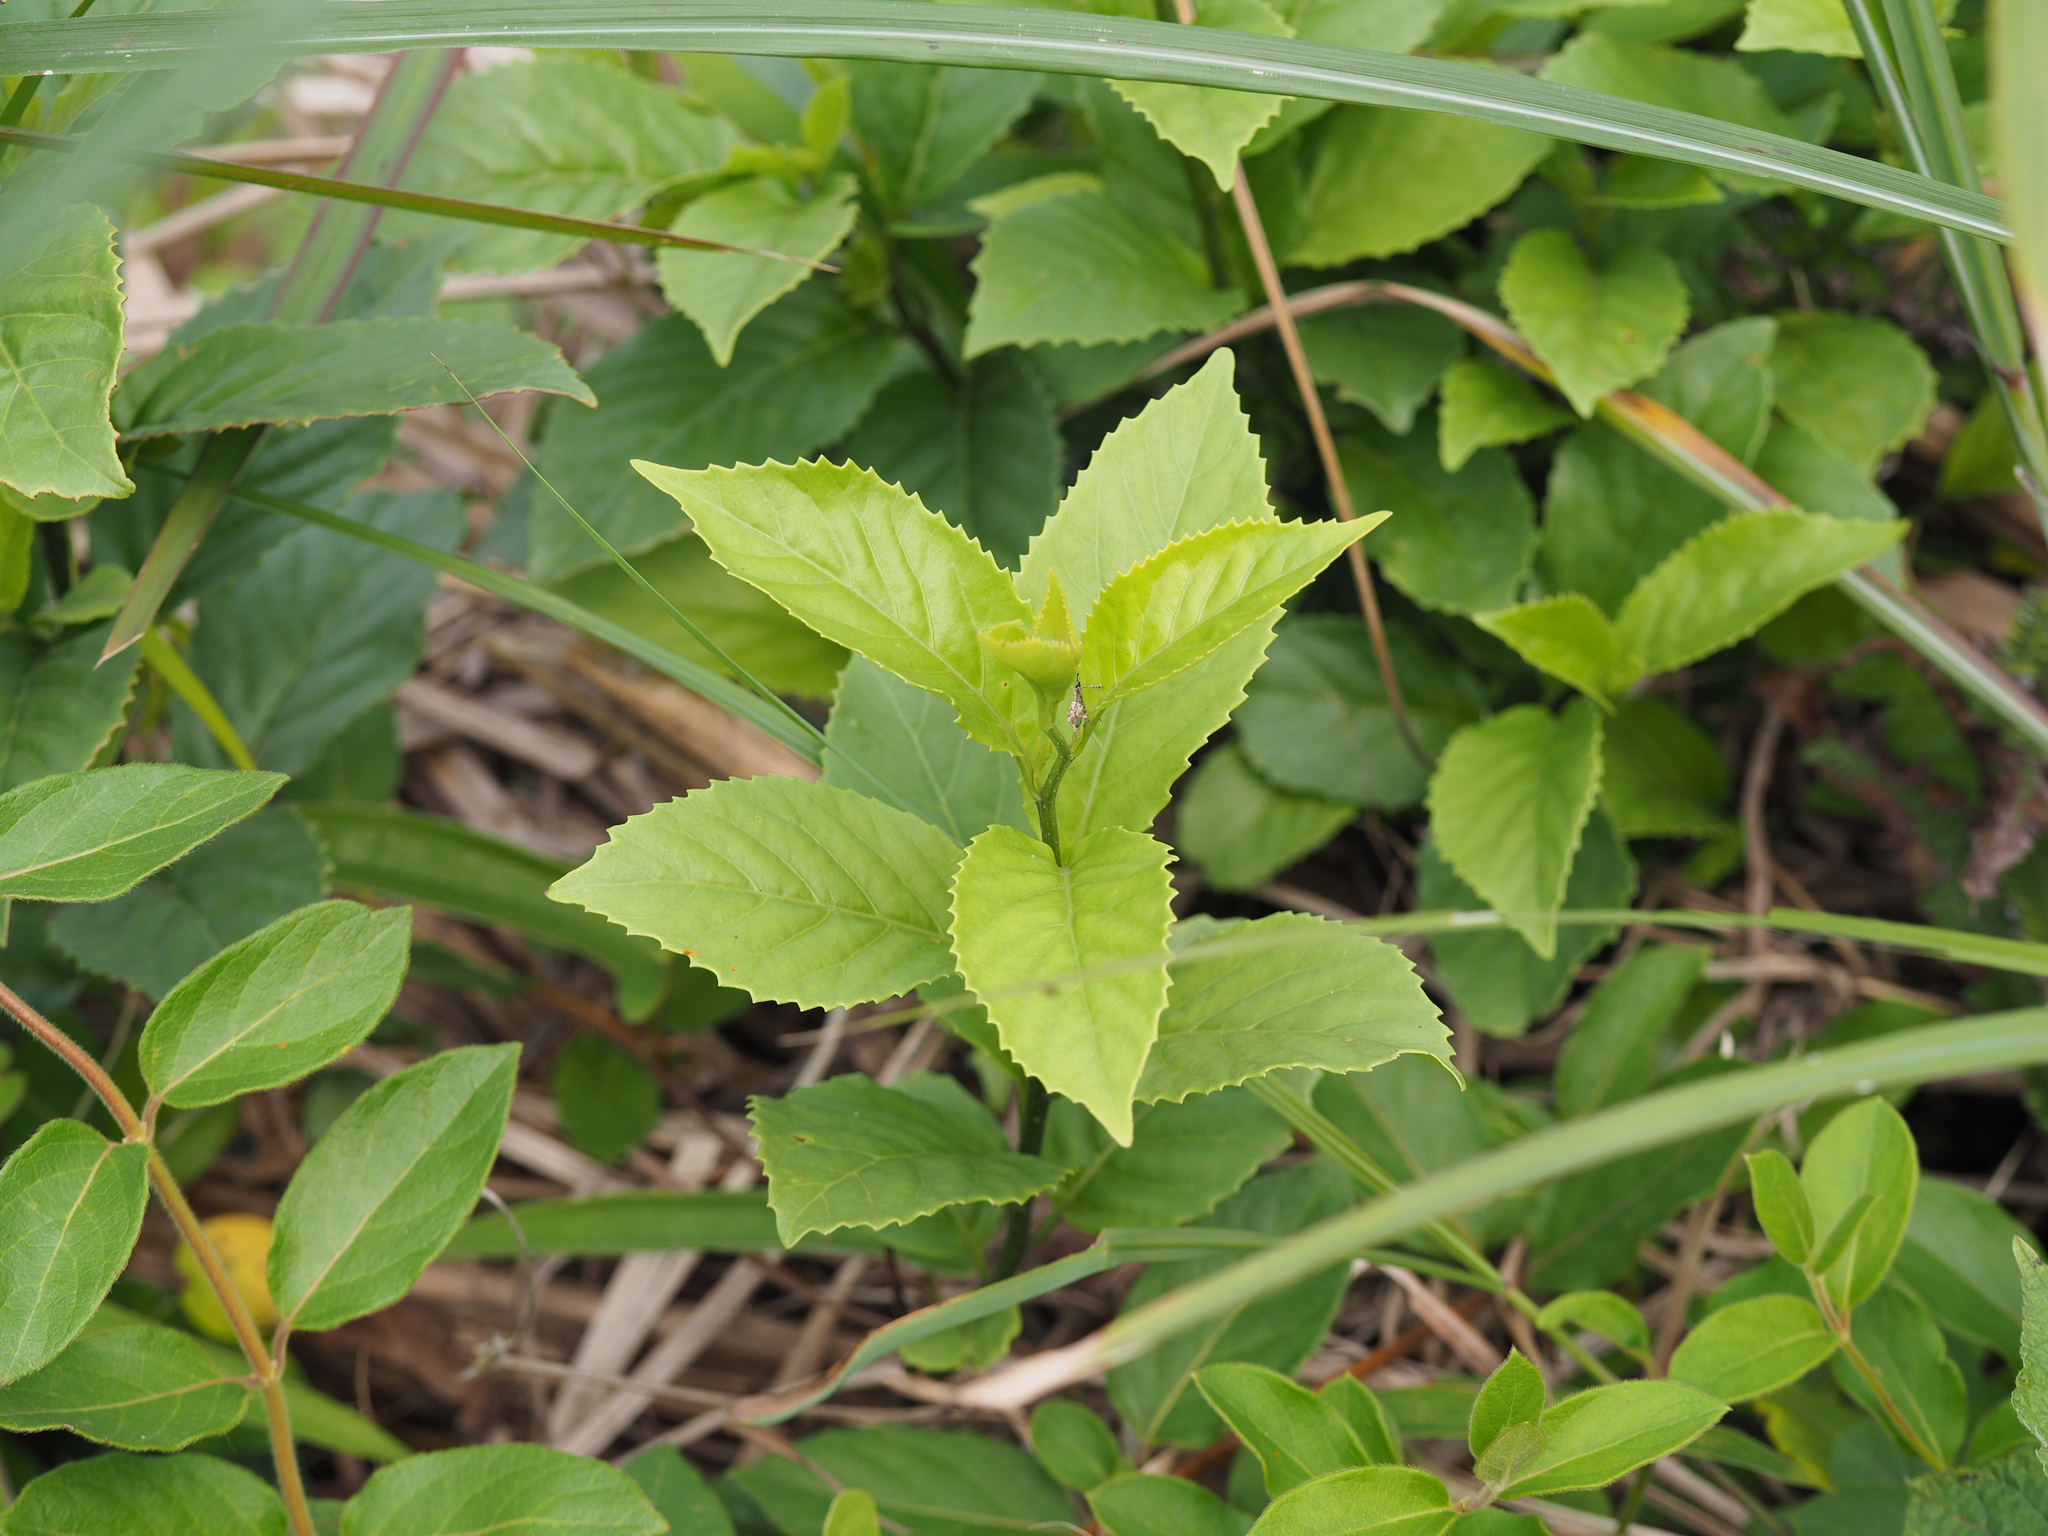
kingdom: Plantae
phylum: Tracheophyta
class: Magnoliopsida
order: Ericales
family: Primulaceae
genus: Maesa
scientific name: Maesa perlaria
